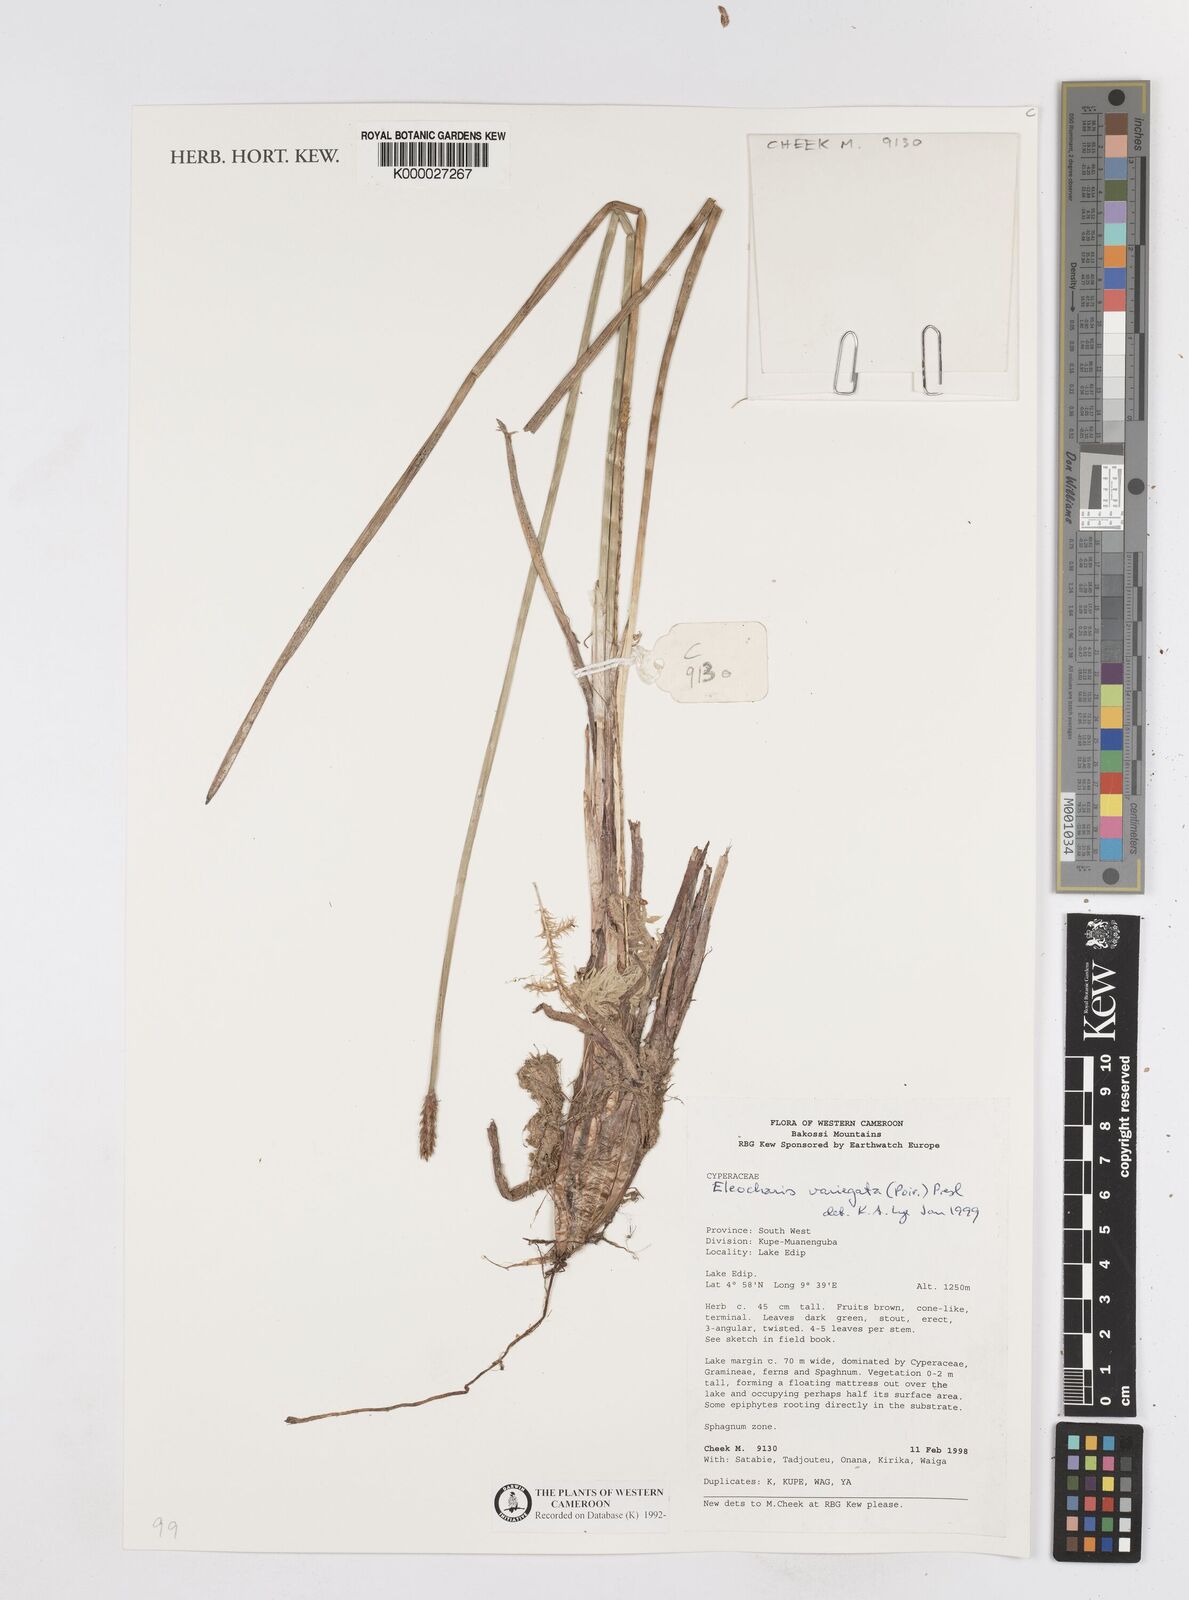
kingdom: Plantae
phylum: Tracheophyta
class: Liliopsida
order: Poales
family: Cyperaceae
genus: Eleocharis
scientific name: Eleocharis variegata
